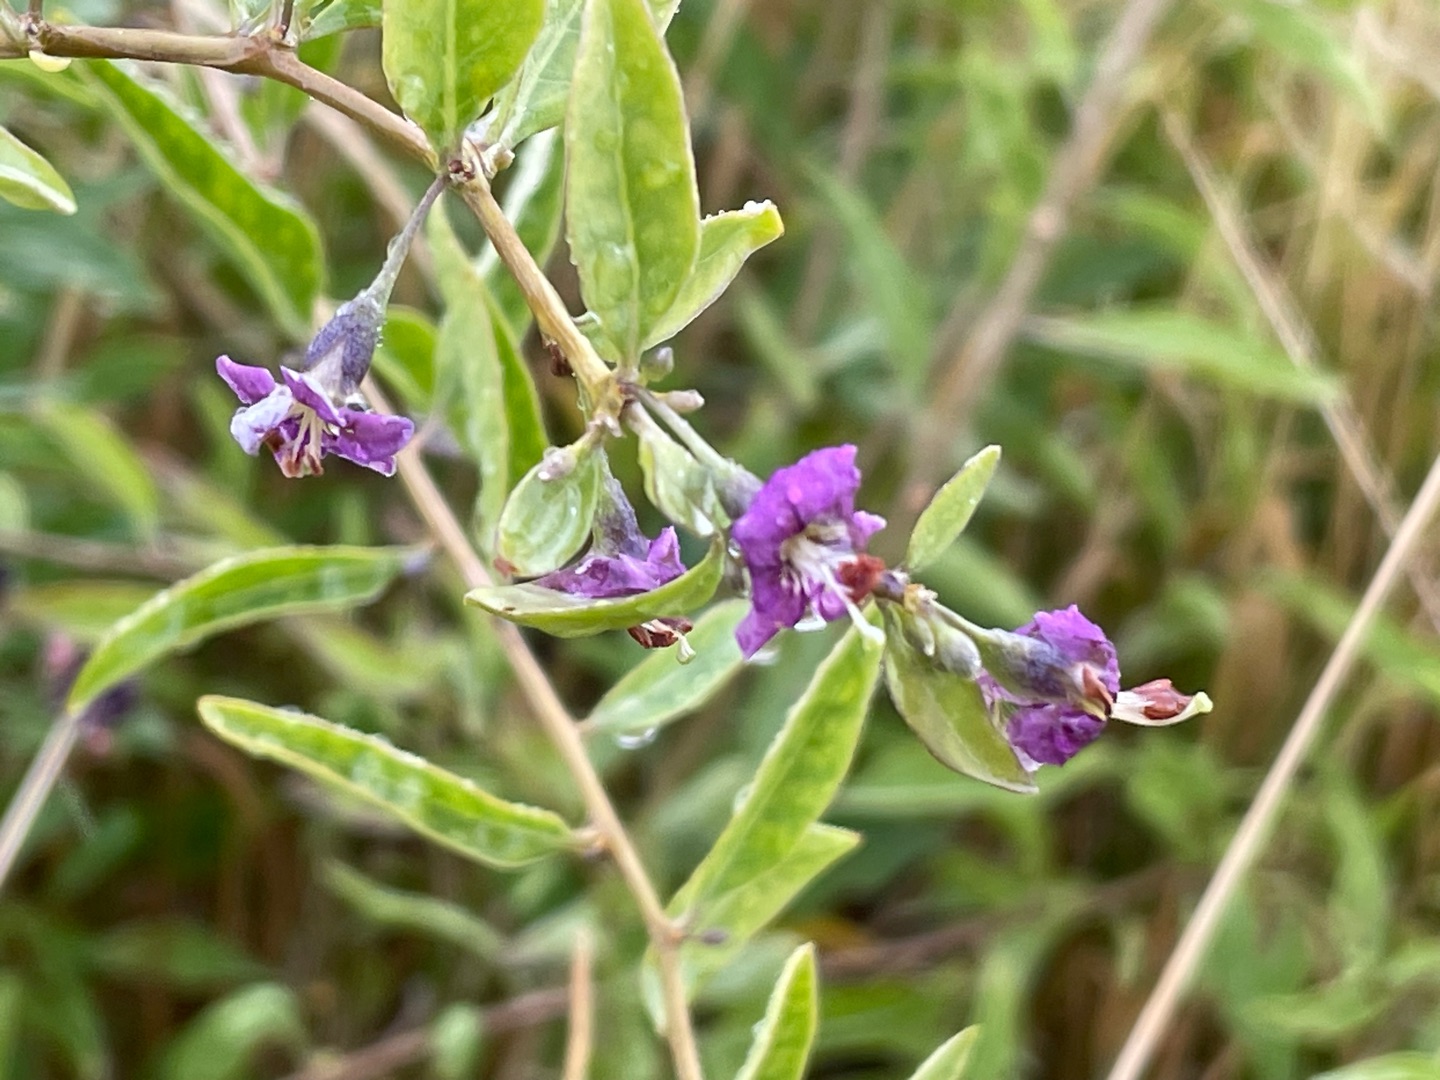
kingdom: Plantae
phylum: Tracheophyta
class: Magnoliopsida
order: Solanales
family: Solanaceae
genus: Lycium
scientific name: Lycium barbarum
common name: Bukketorn
